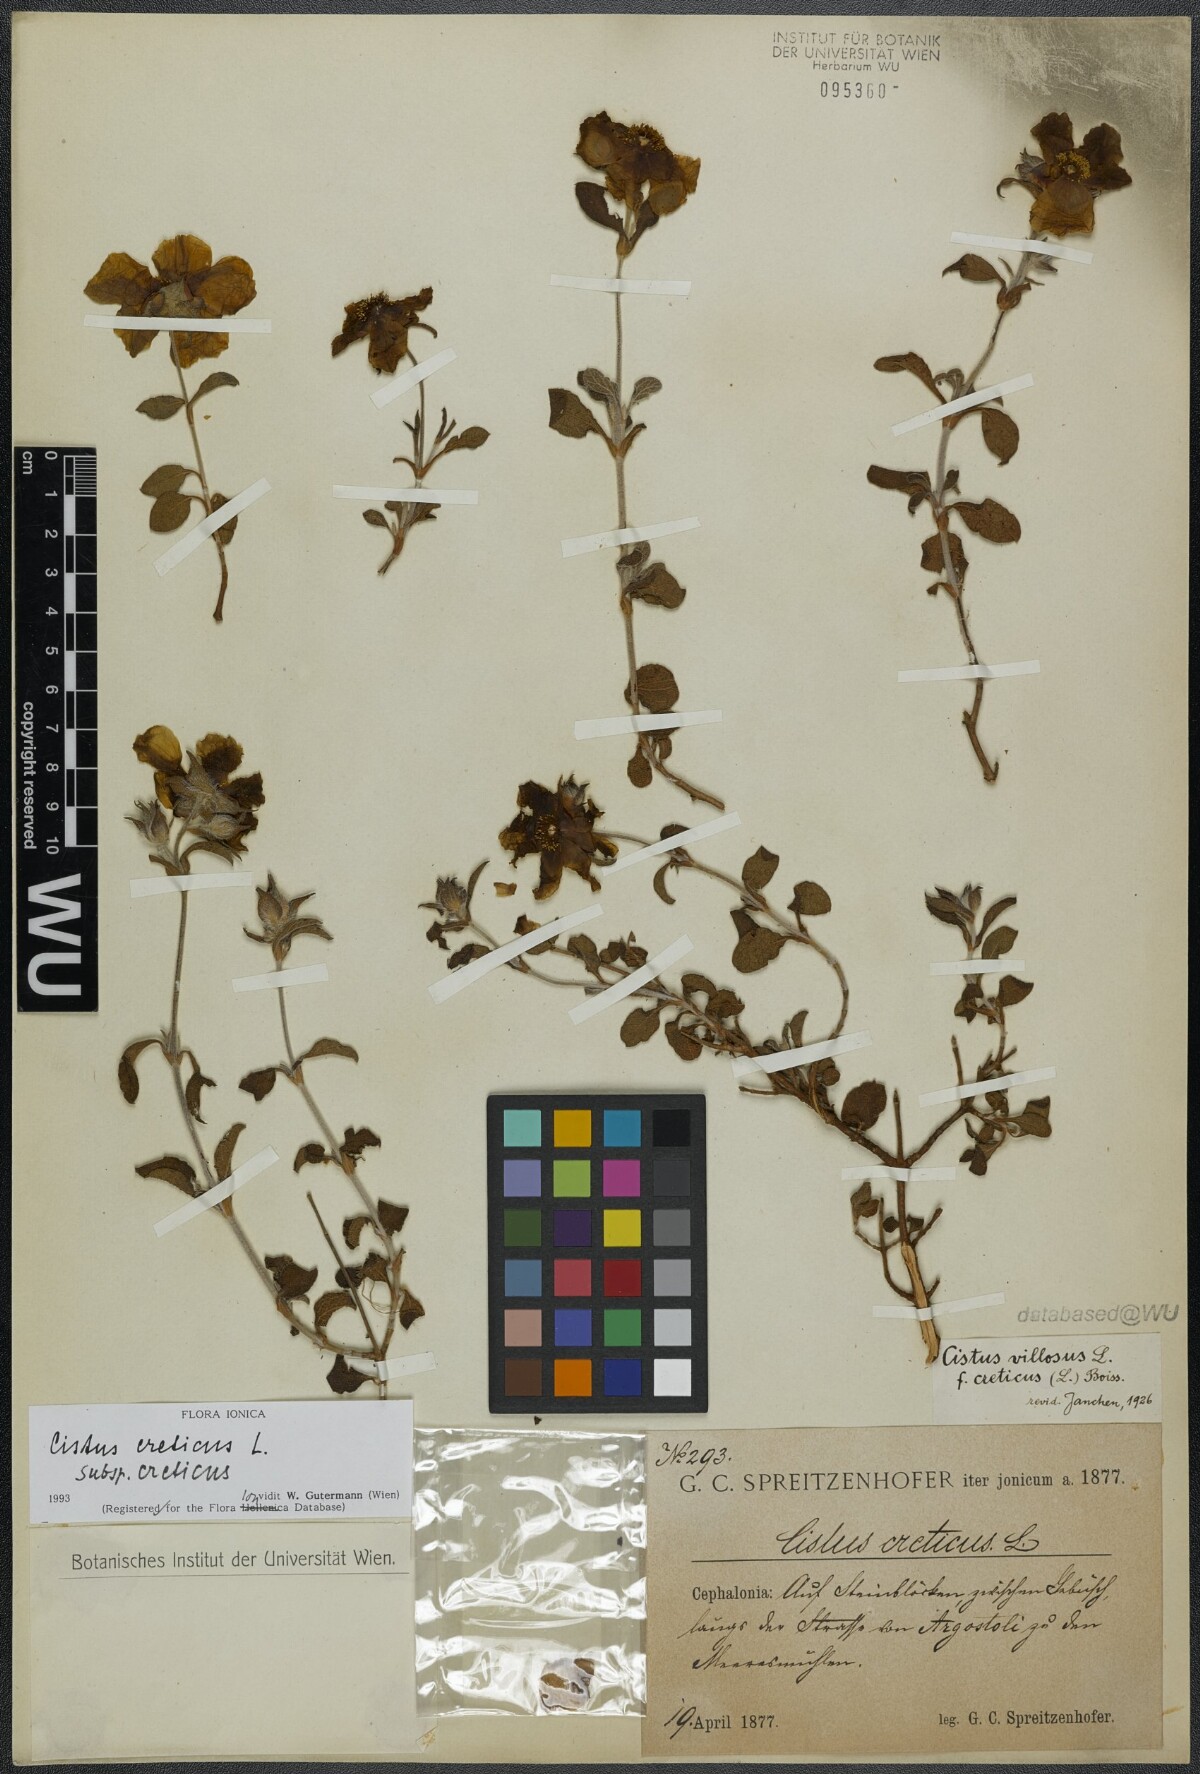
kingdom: Plantae
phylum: Tracheophyta
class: Magnoliopsida
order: Malvales
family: Cistaceae
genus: Cistus
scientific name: Cistus creticus
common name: Cretan rockrose
